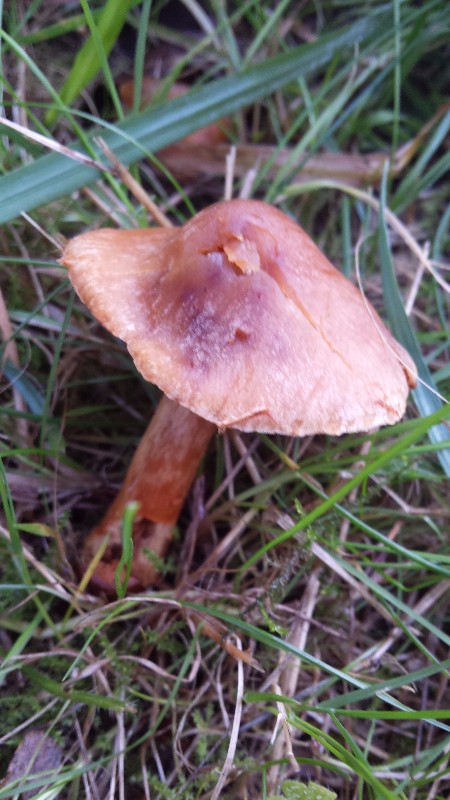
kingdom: Fungi
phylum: Basidiomycota
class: Agaricomycetes
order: Agaricales
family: Hydnangiaceae
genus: Laccaria
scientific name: Laccaria
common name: ametysthat
